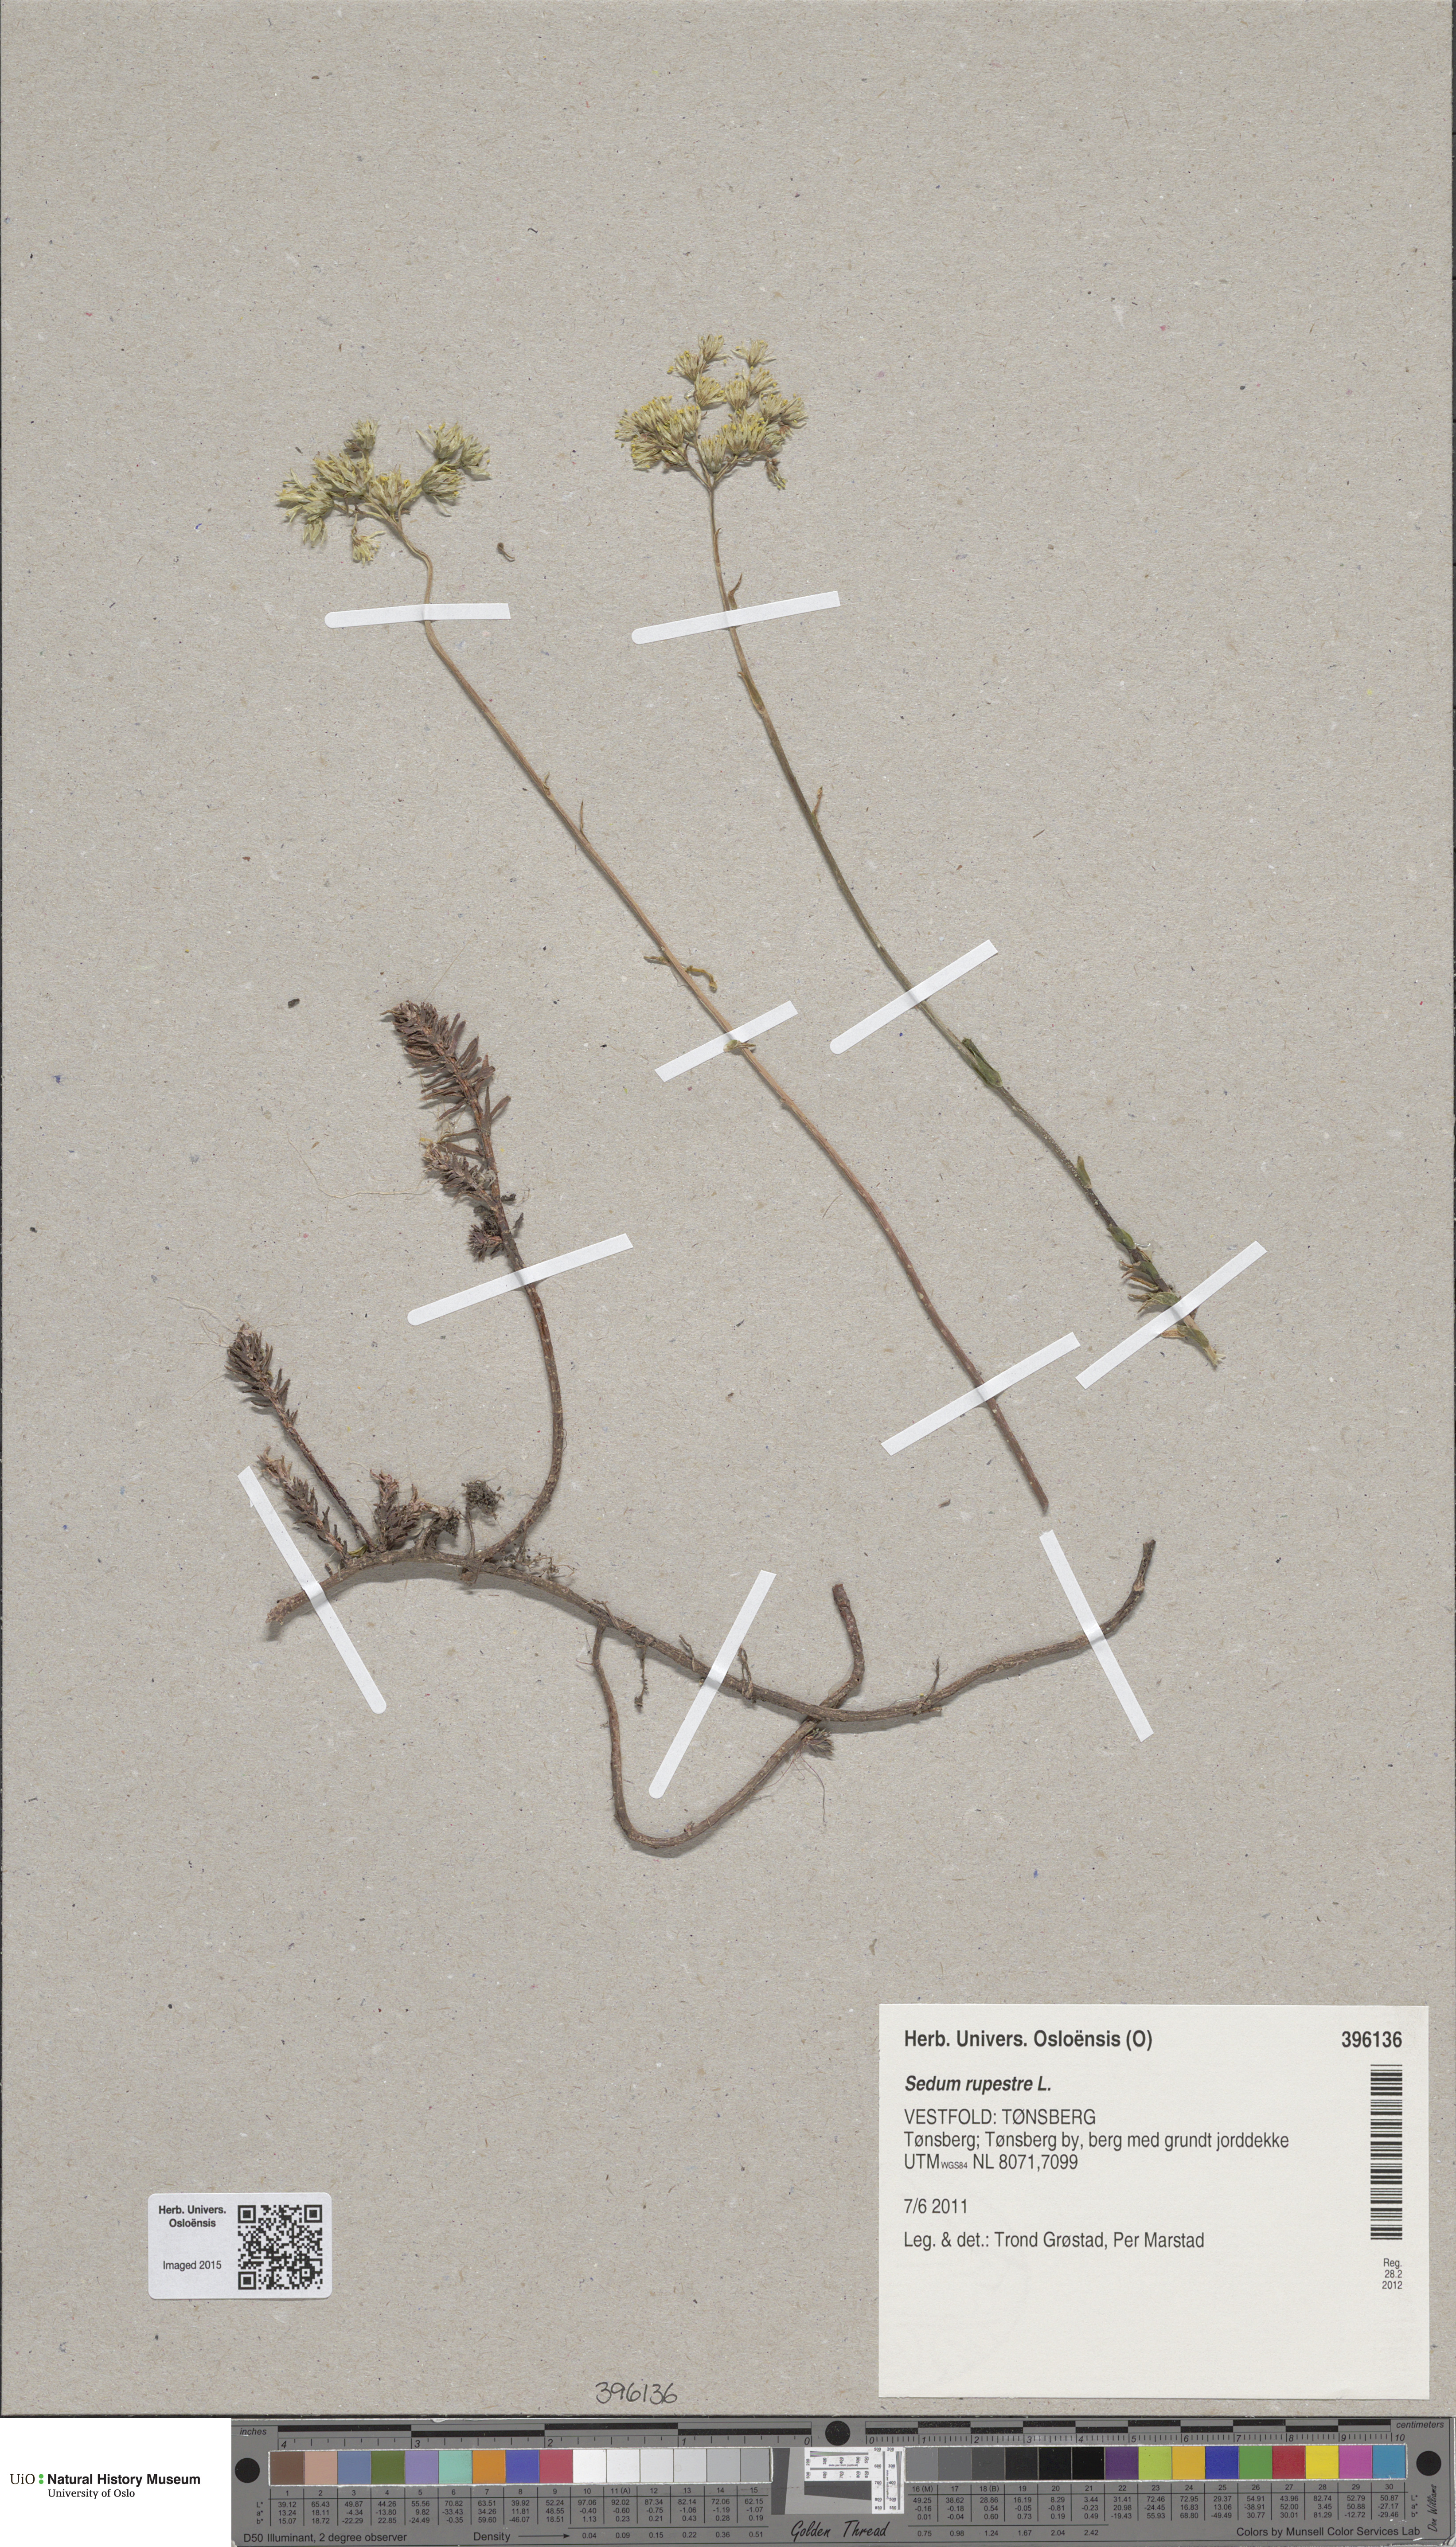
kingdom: Plantae
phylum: Tracheophyta
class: Magnoliopsida
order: Saxifragales
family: Crassulaceae
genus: Petrosedum
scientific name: Petrosedum rupestre
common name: Jenny's stonecrop
